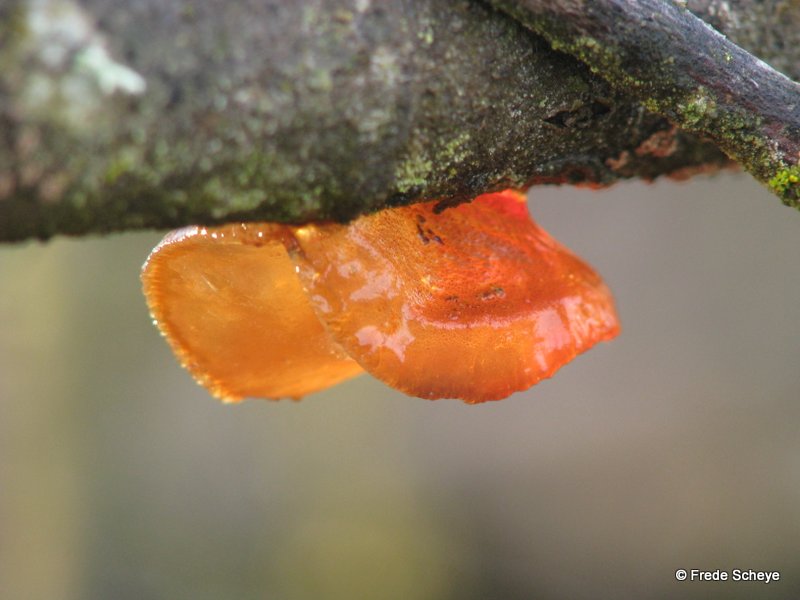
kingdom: Fungi
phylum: Basidiomycota
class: Agaricomycetes
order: Auriculariales
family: Auriculariaceae
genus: Exidia
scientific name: Exidia recisa
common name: pile-bævretop
